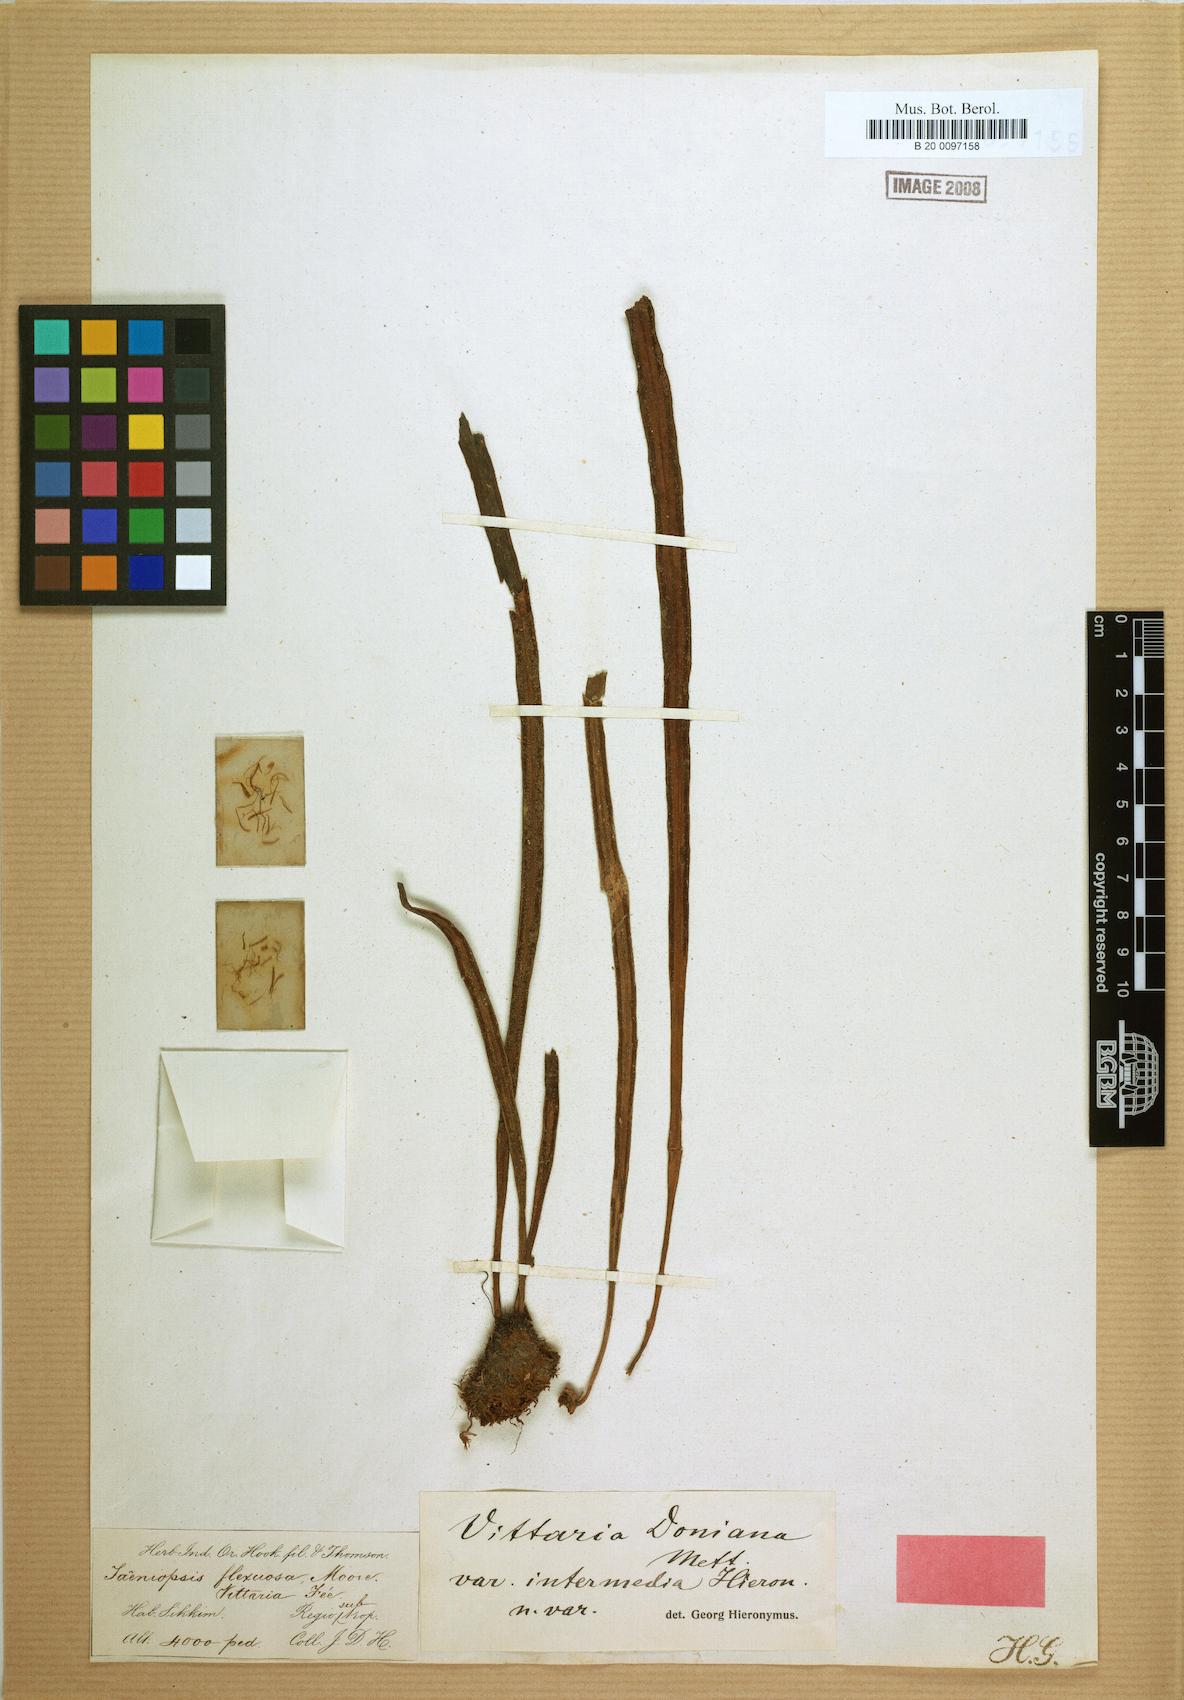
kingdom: Plantae
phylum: Tracheophyta
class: Polypodiopsida
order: Polypodiales
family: Pteridaceae
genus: Haplopteris
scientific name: Haplopteris taeniophylla
